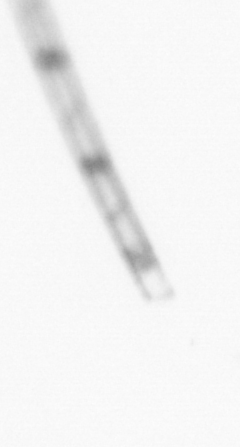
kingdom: Chromista
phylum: Ochrophyta
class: Bacillariophyceae
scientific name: Bacillariophyceae
